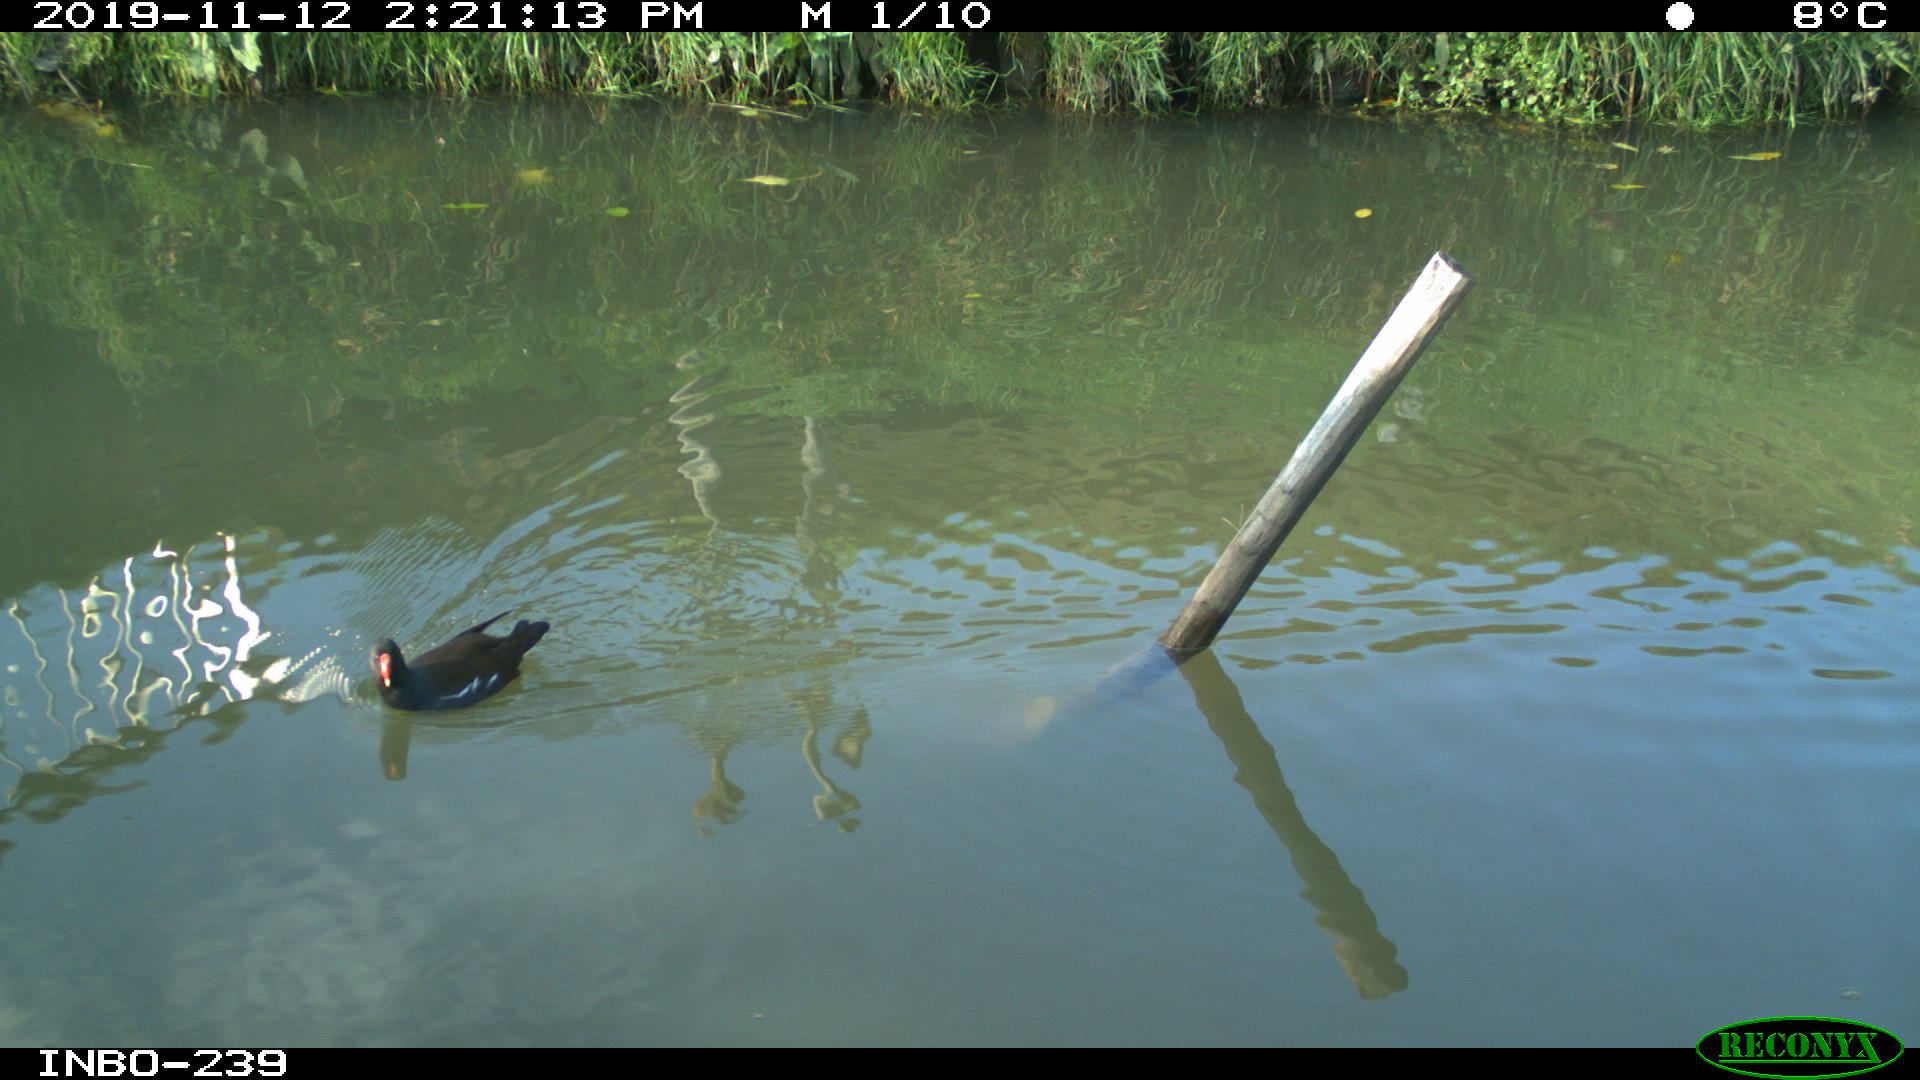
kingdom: Animalia
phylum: Chordata
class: Aves
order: Gruiformes
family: Rallidae
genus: Gallinula
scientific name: Gallinula chloropus
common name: Common moorhen
